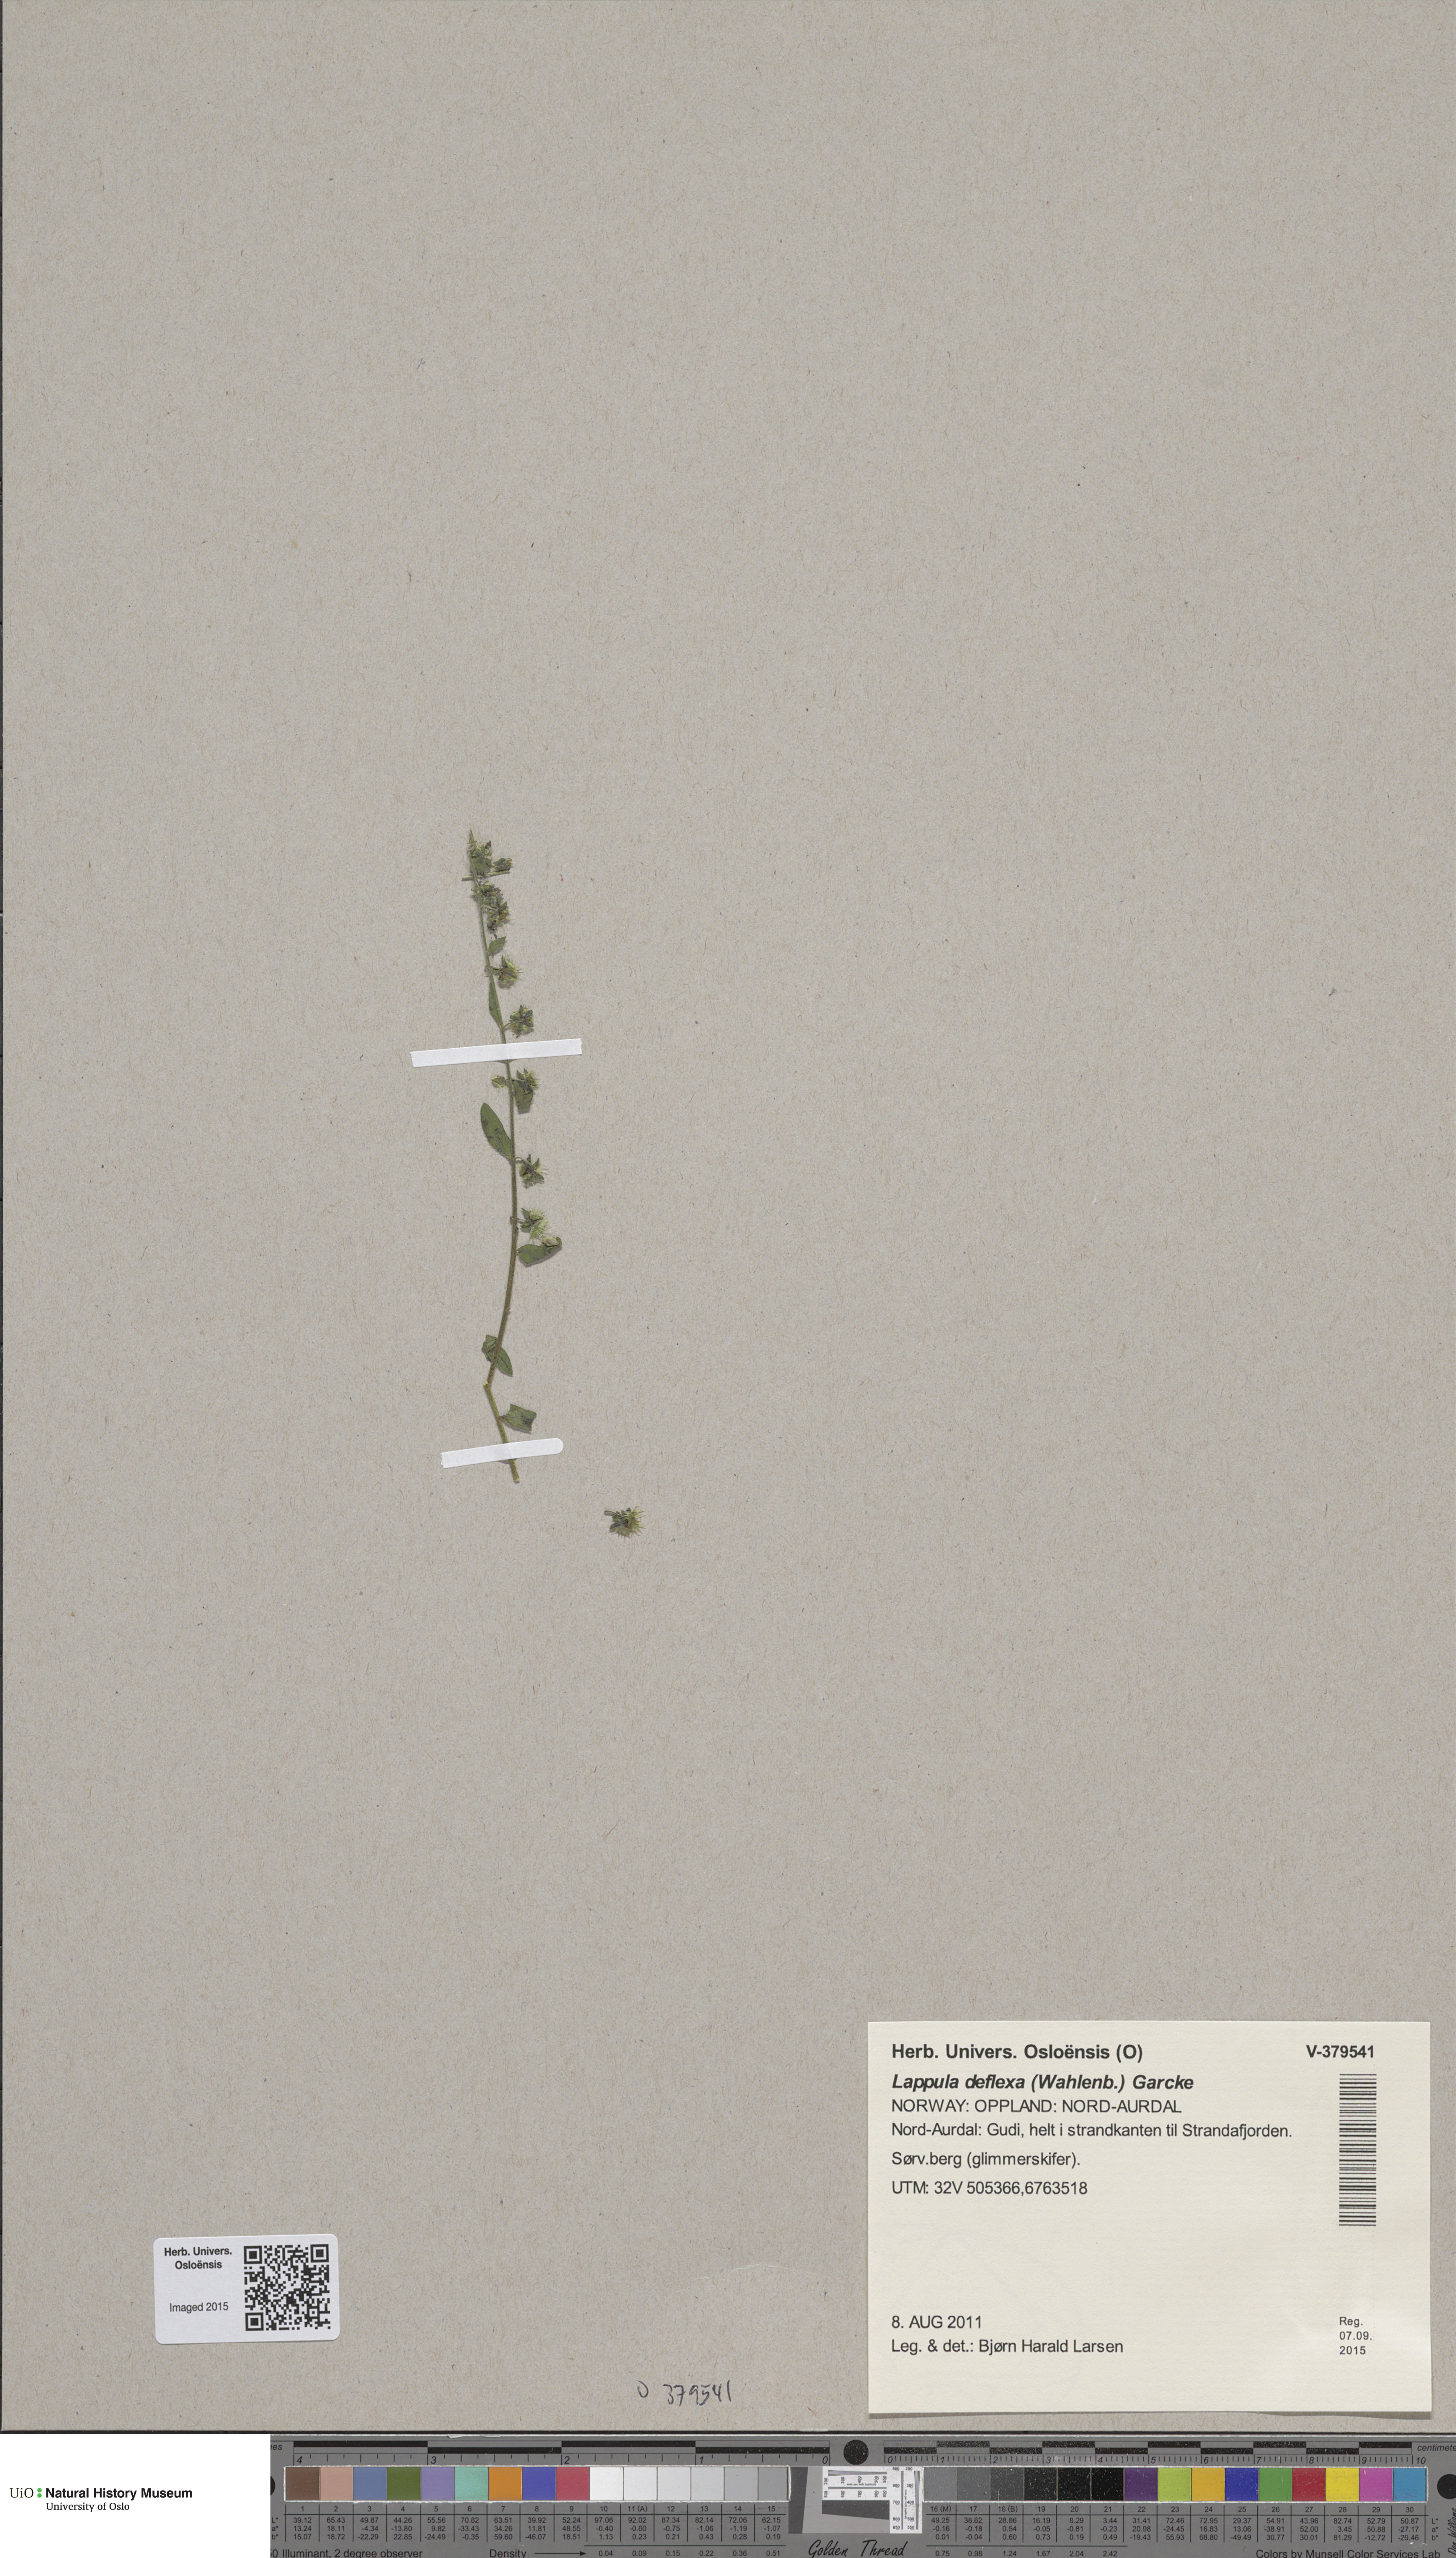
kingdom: Plantae
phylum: Tracheophyta
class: Magnoliopsida
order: Boraginales
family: Boraginaceae
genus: Hackelia
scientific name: Hackelia deflexa
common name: Nodding stickseed
